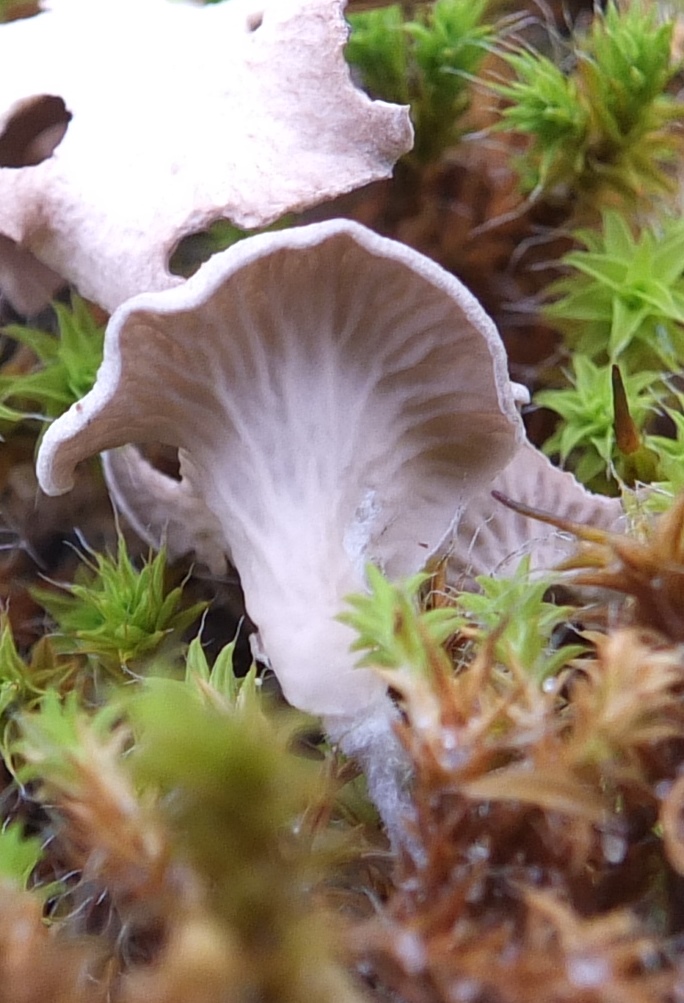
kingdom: Fungi
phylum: Basidiomycota
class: Agaricomycetes
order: Agaricales
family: Hygrophoraceae
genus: Arrhenia
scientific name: Arrhenia spathulata
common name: skæv fontænehat
